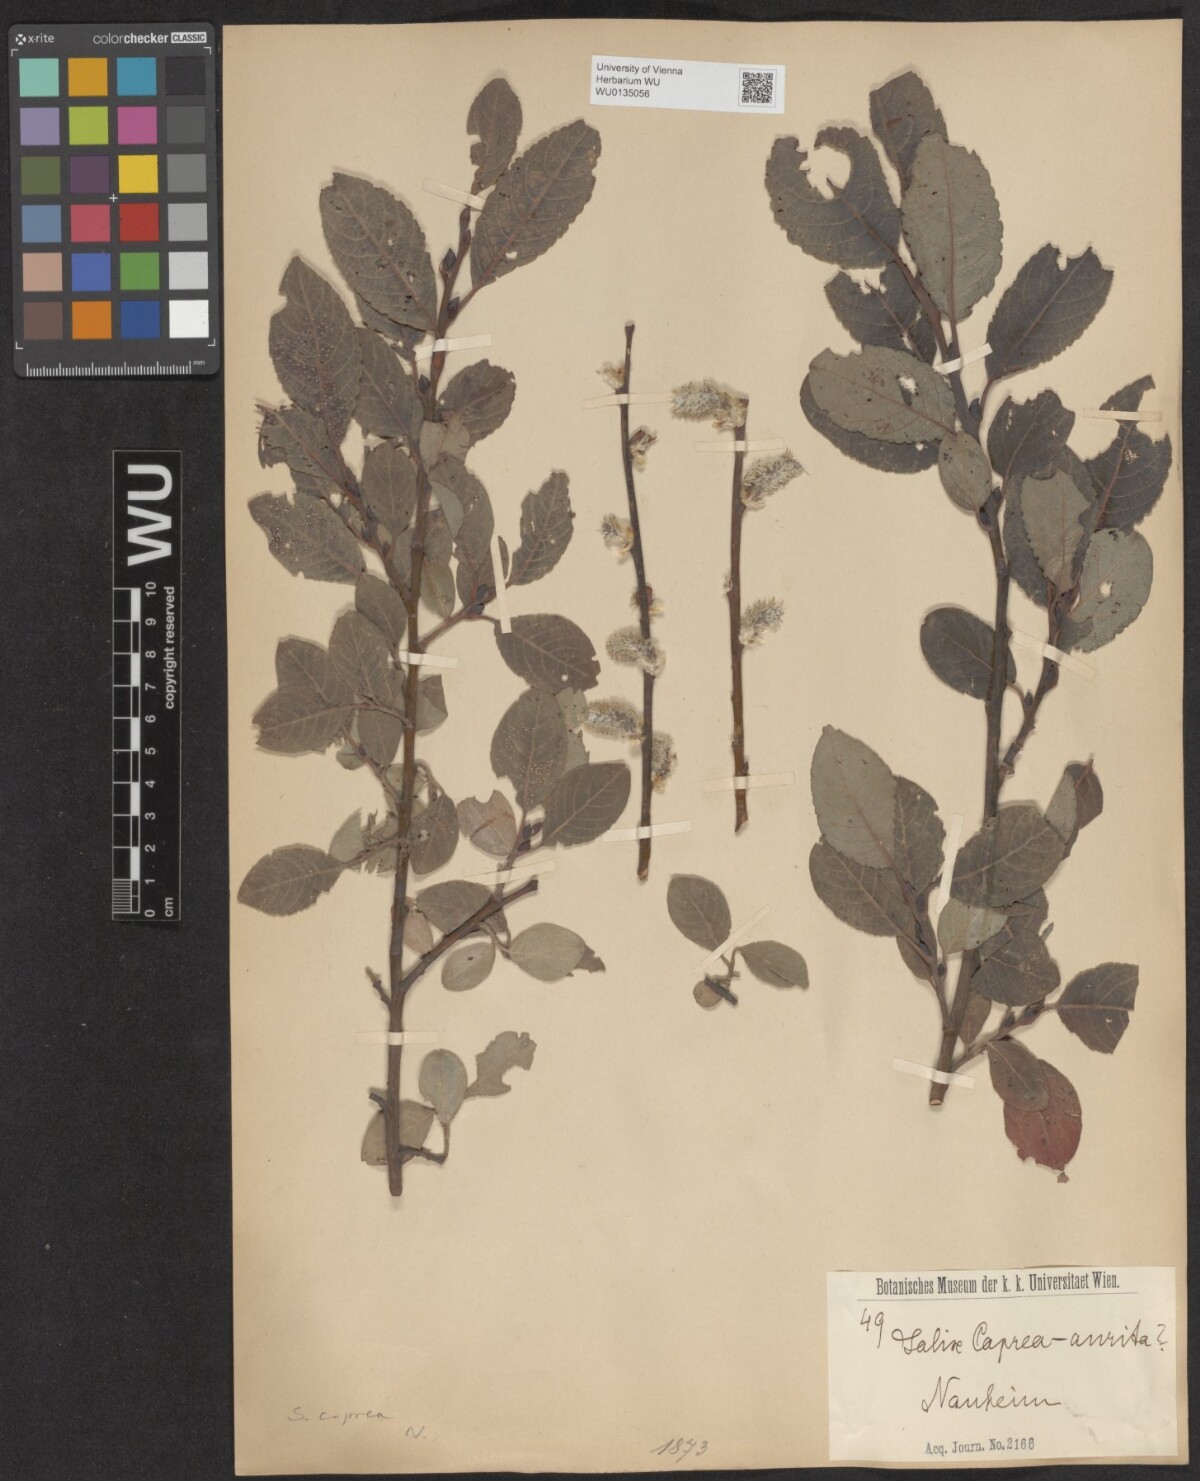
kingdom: Plantae
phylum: Tracheophyta
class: Magnoliopsida
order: Malpighiales
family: Salicaceae
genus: Salix
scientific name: Salix caprea
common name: Goat willow
